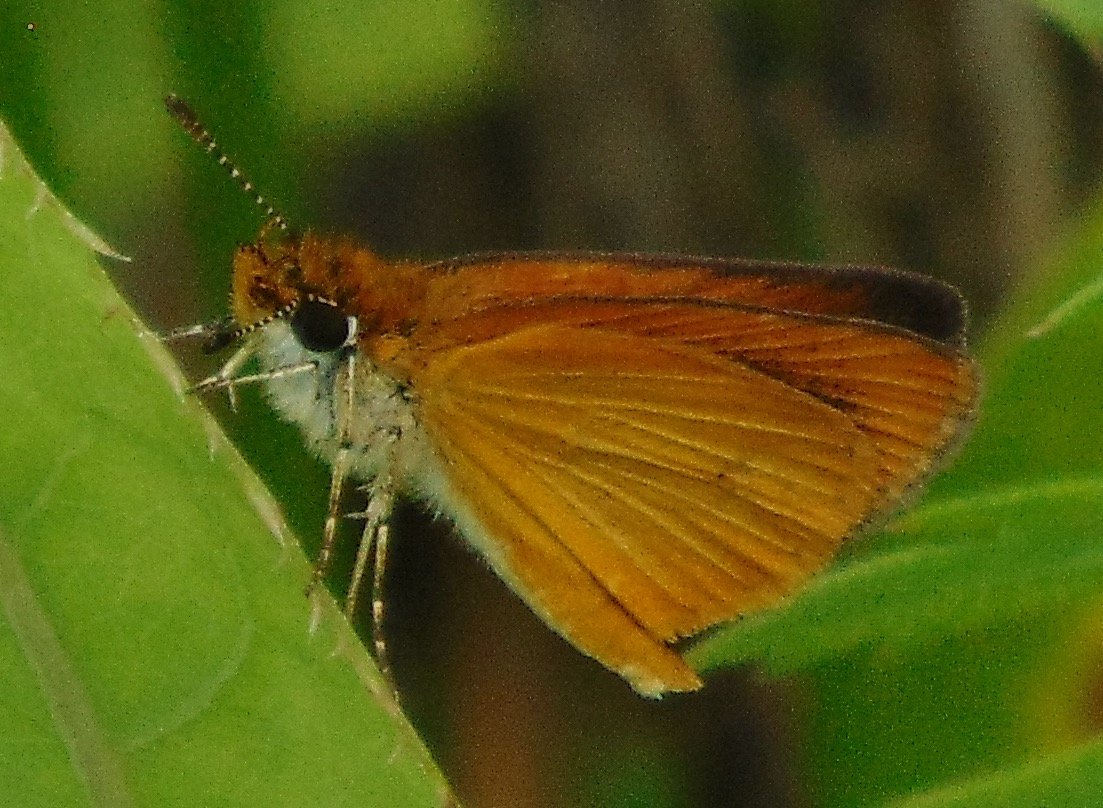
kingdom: Animalia
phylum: Arthropoda
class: Insecta
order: Lepidoptera
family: Hesperiidae
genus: Ancyloxypha
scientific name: Ancyloxypha numitor
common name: Least Skipper
